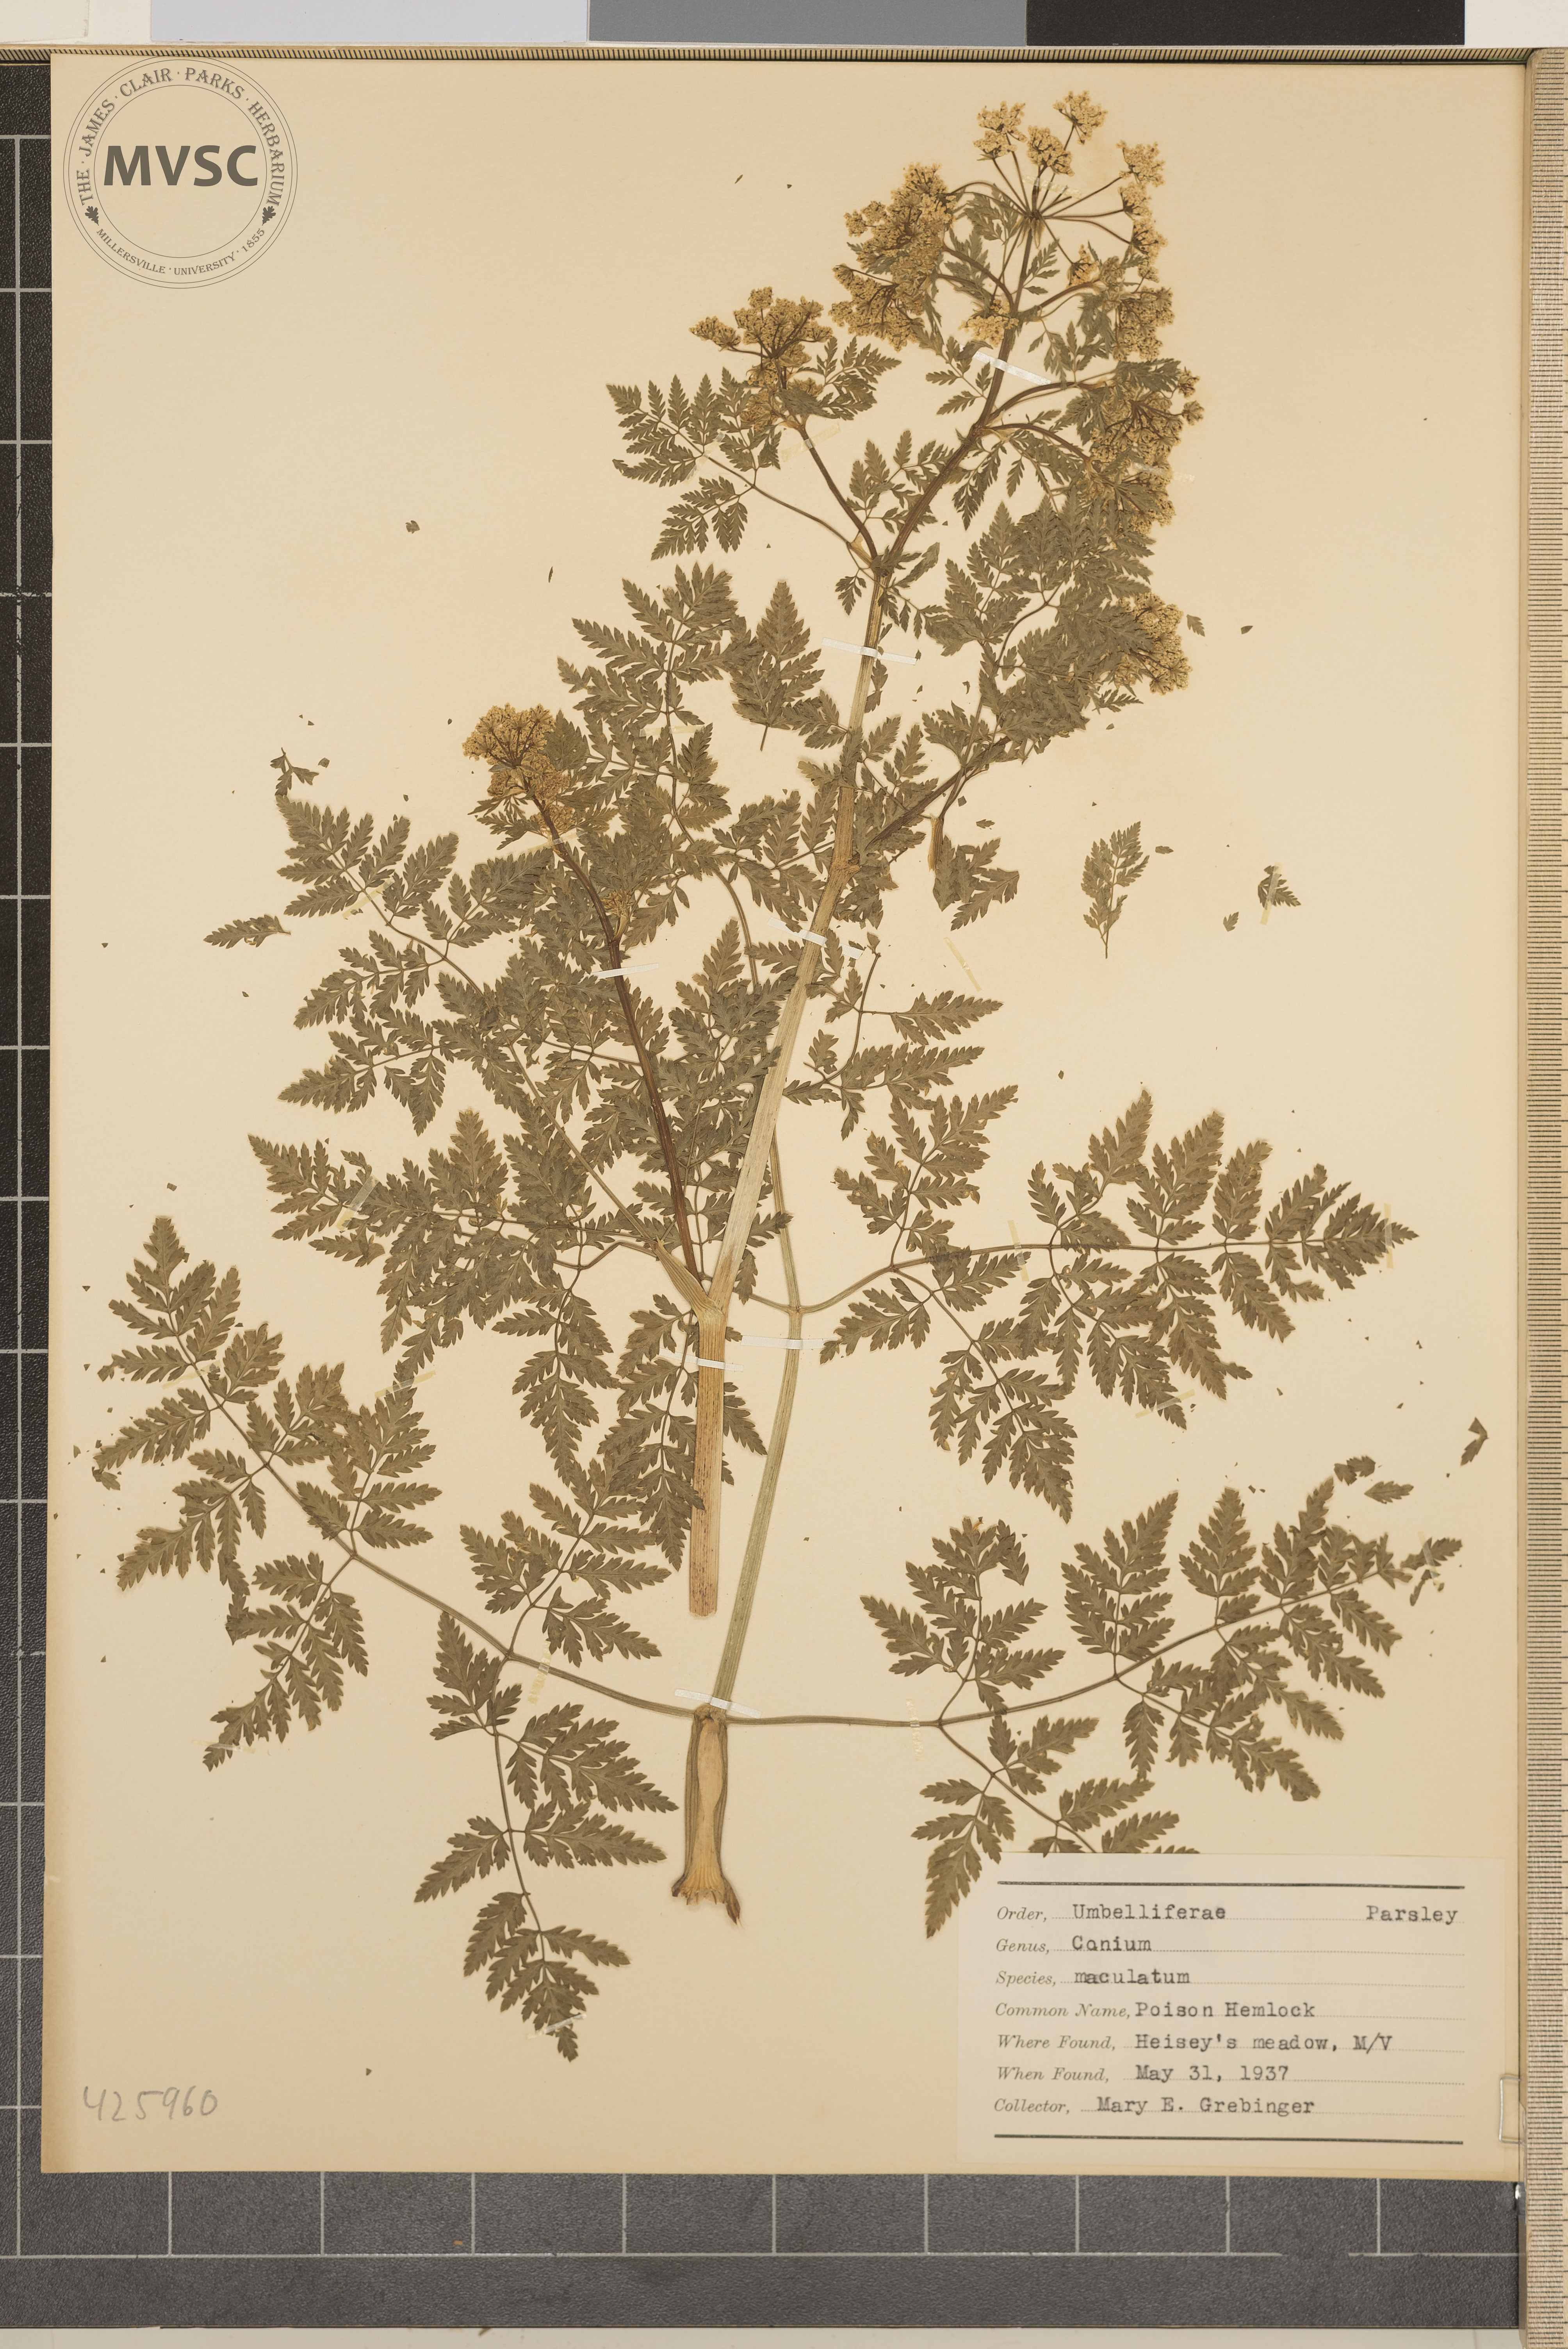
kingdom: Plantae
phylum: Tracheophyta
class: Magnoliopsida
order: Apiales
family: Apiaceae
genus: Conium
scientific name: Conium maculatum
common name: Poison Hemlock
